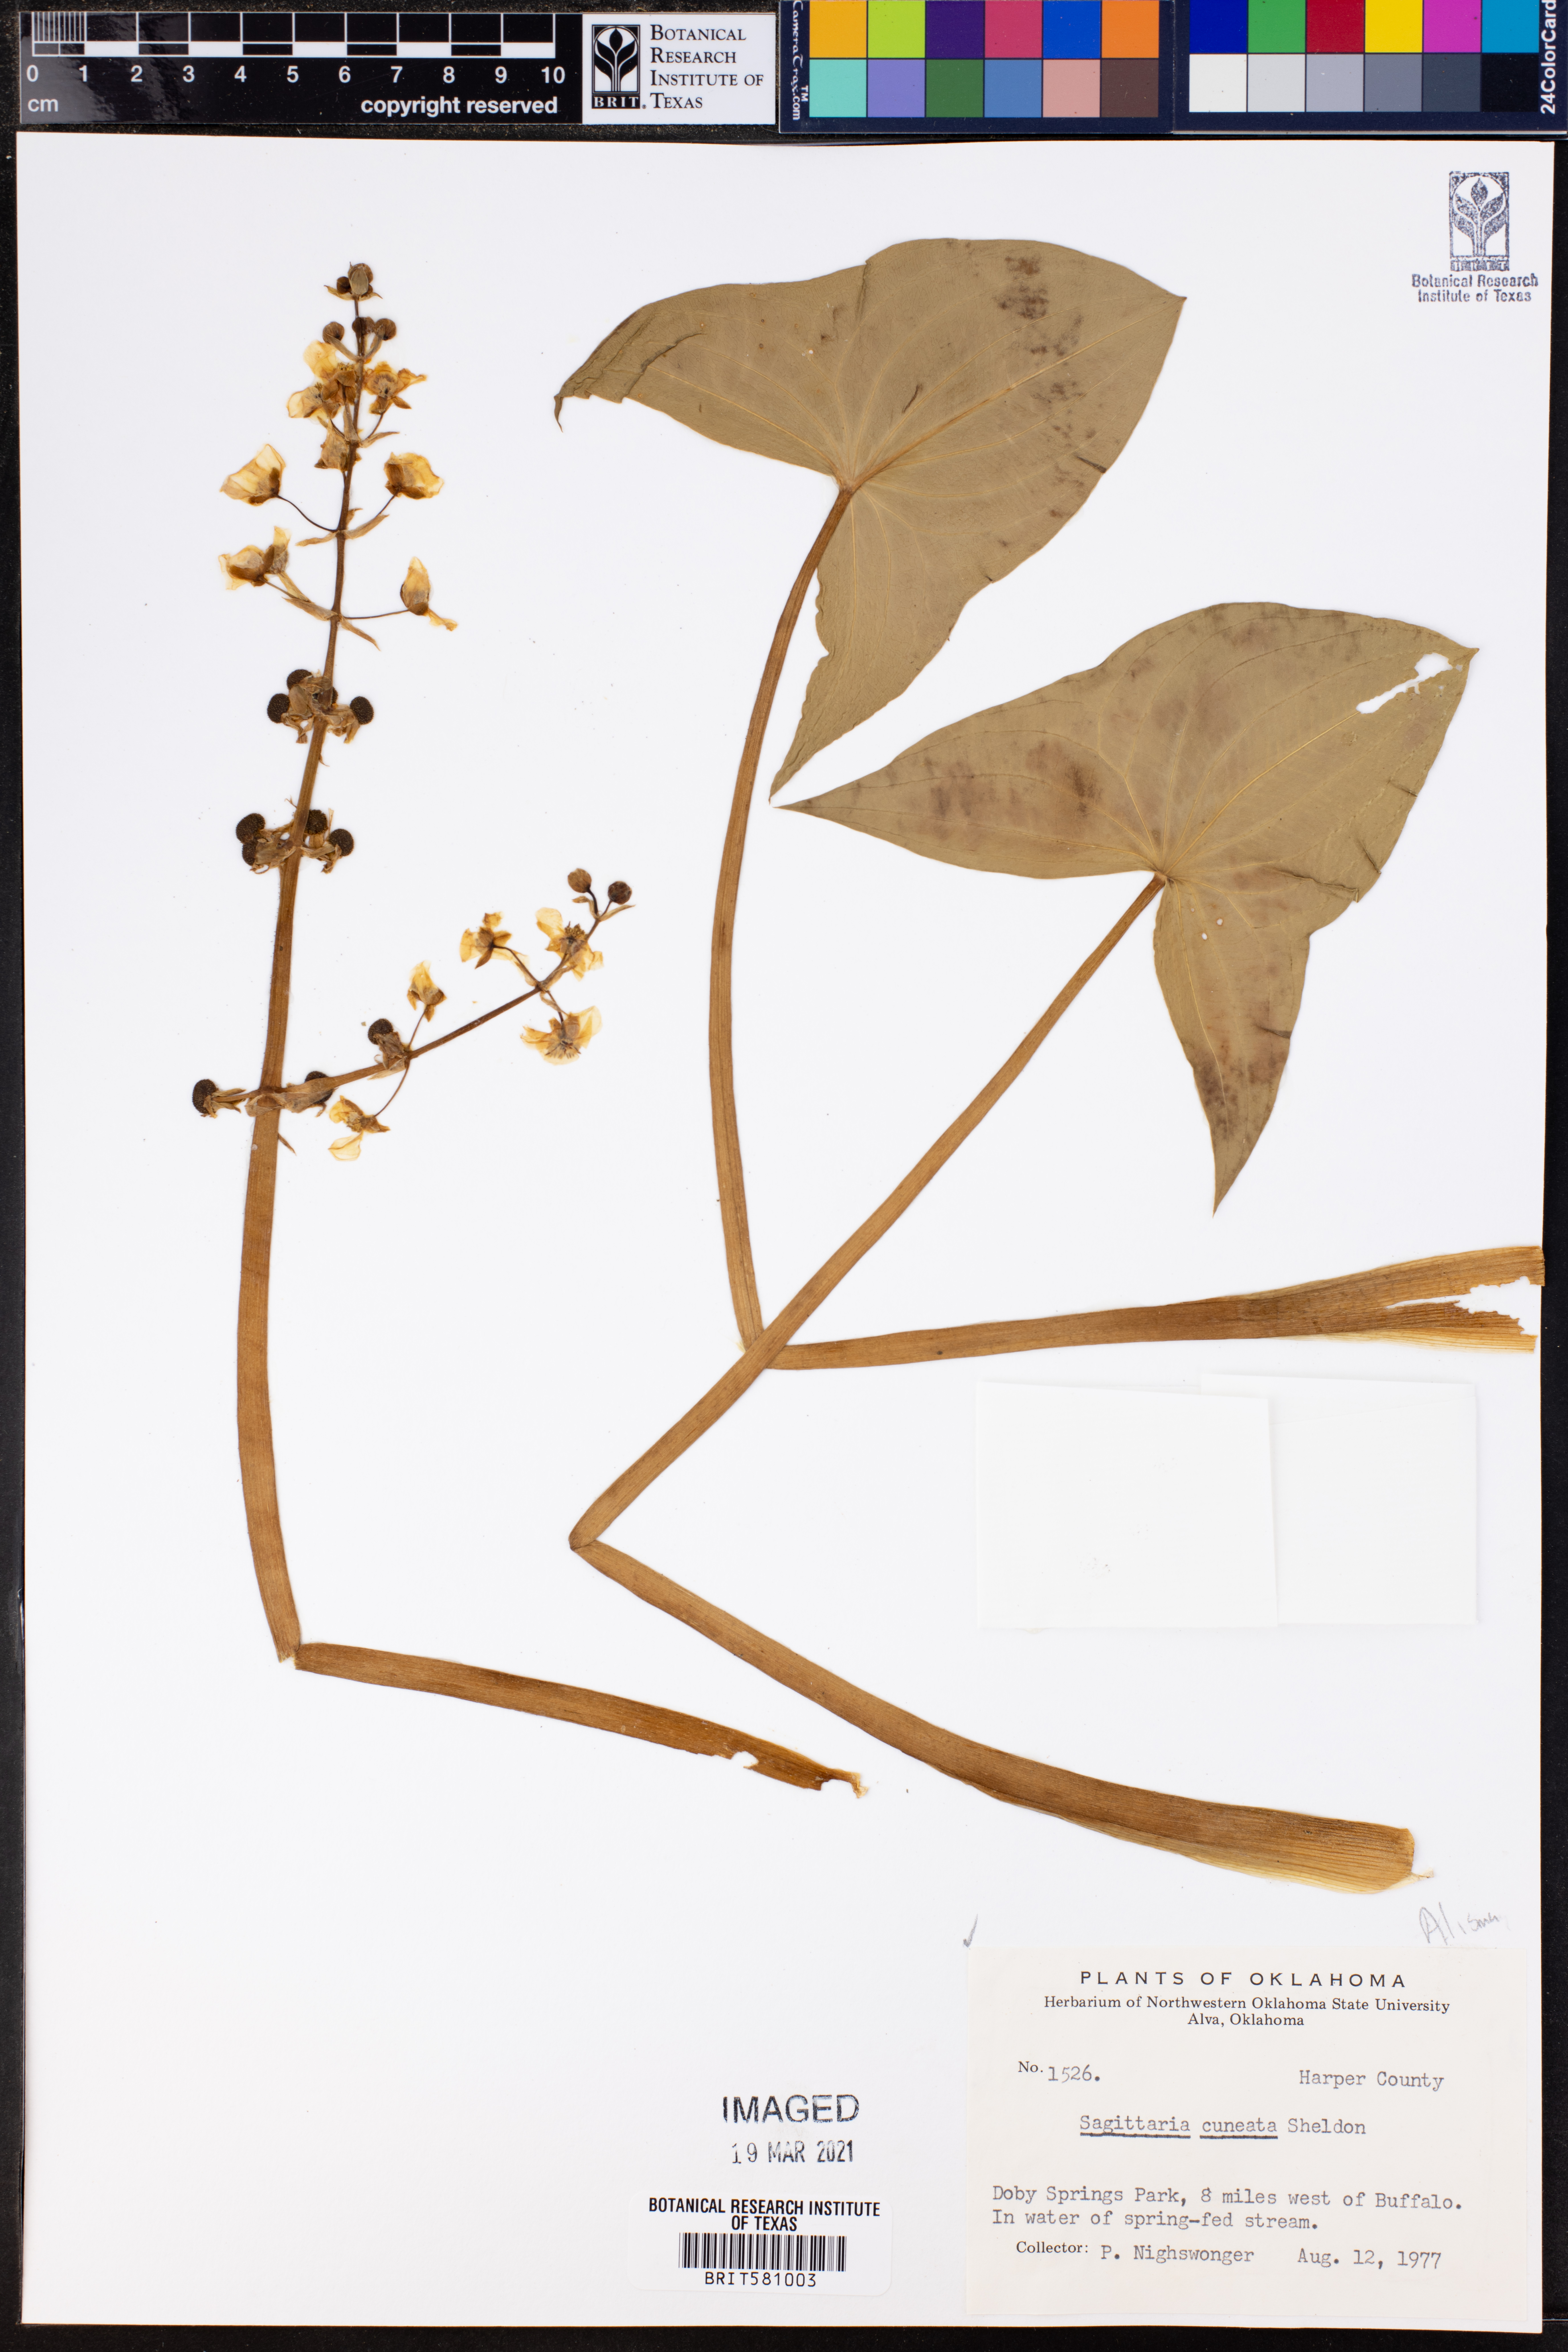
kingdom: Plantae
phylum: Tracheophyta
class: Liliopsida
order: Alismatales
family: Alismataceae
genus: Sagittaria
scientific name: Sagittaria cuneata
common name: Northern arrowhead
